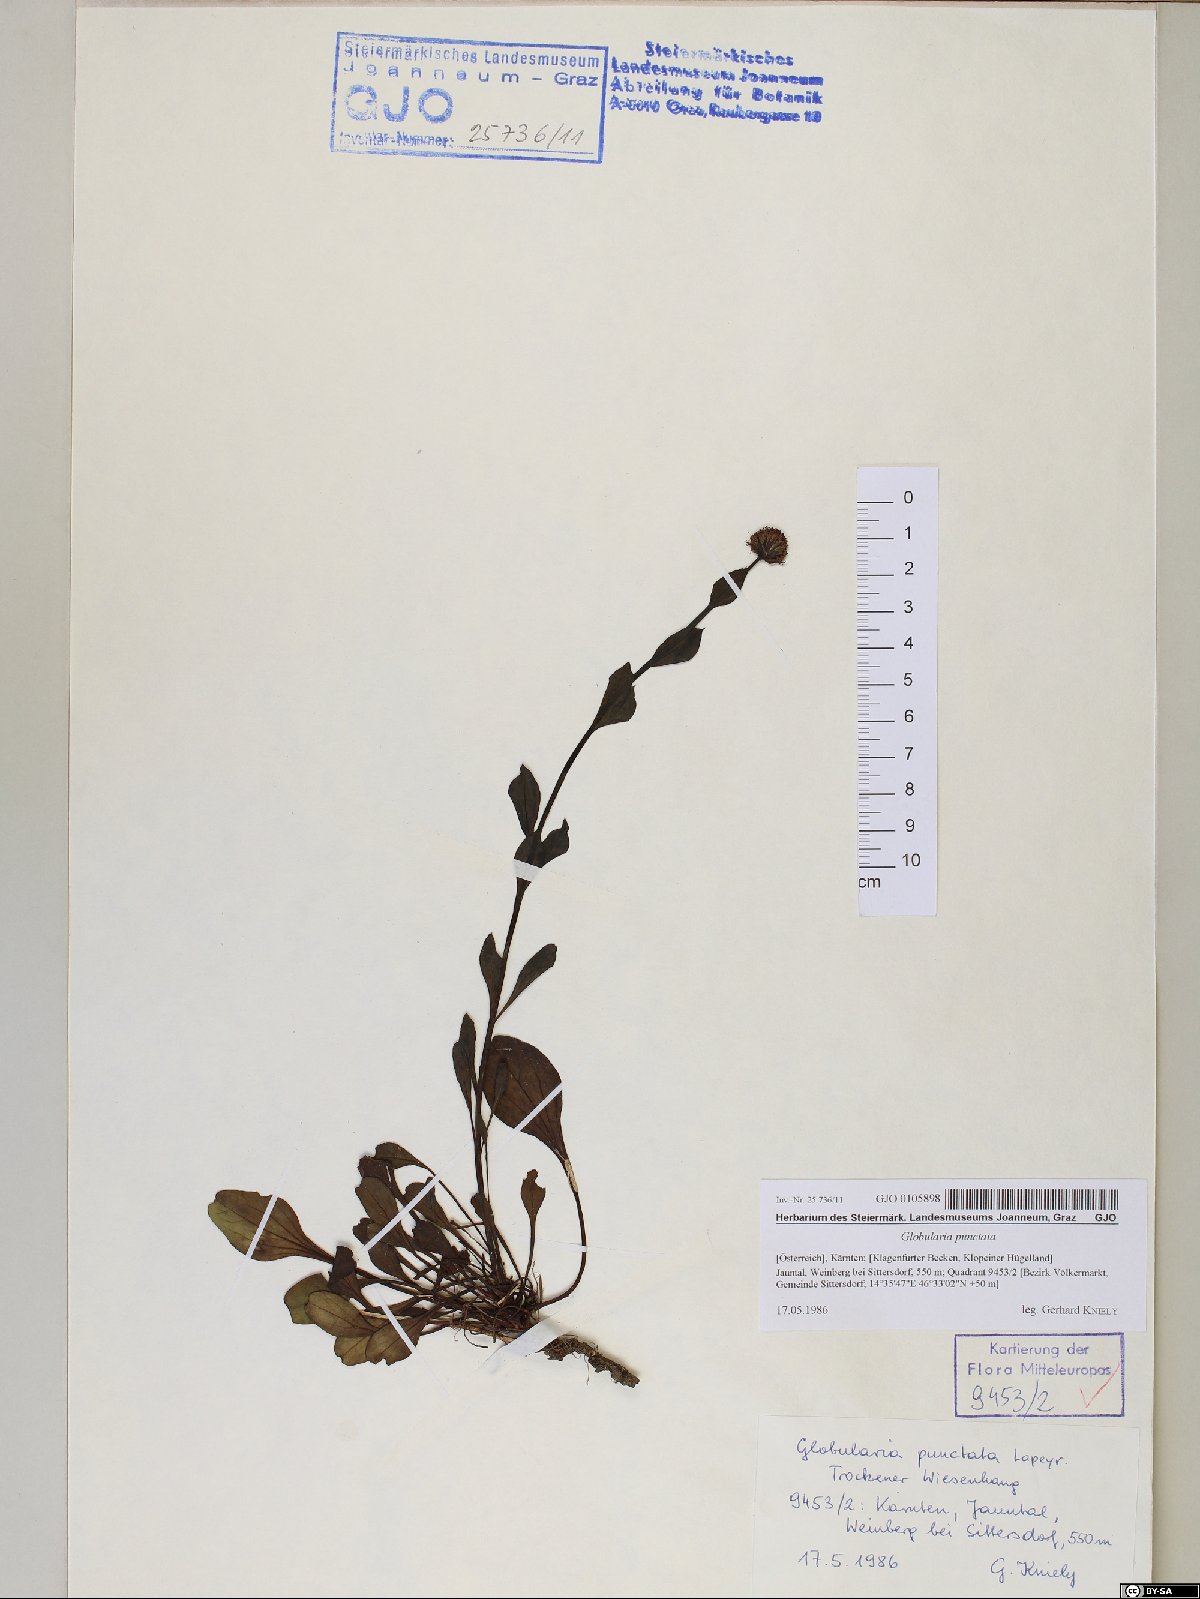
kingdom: Plantae
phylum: Tracheophyta
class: Magnoliopsida
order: Lamiales
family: Plantaginaceae
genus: Globularia
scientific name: Globularia bisnagarica
